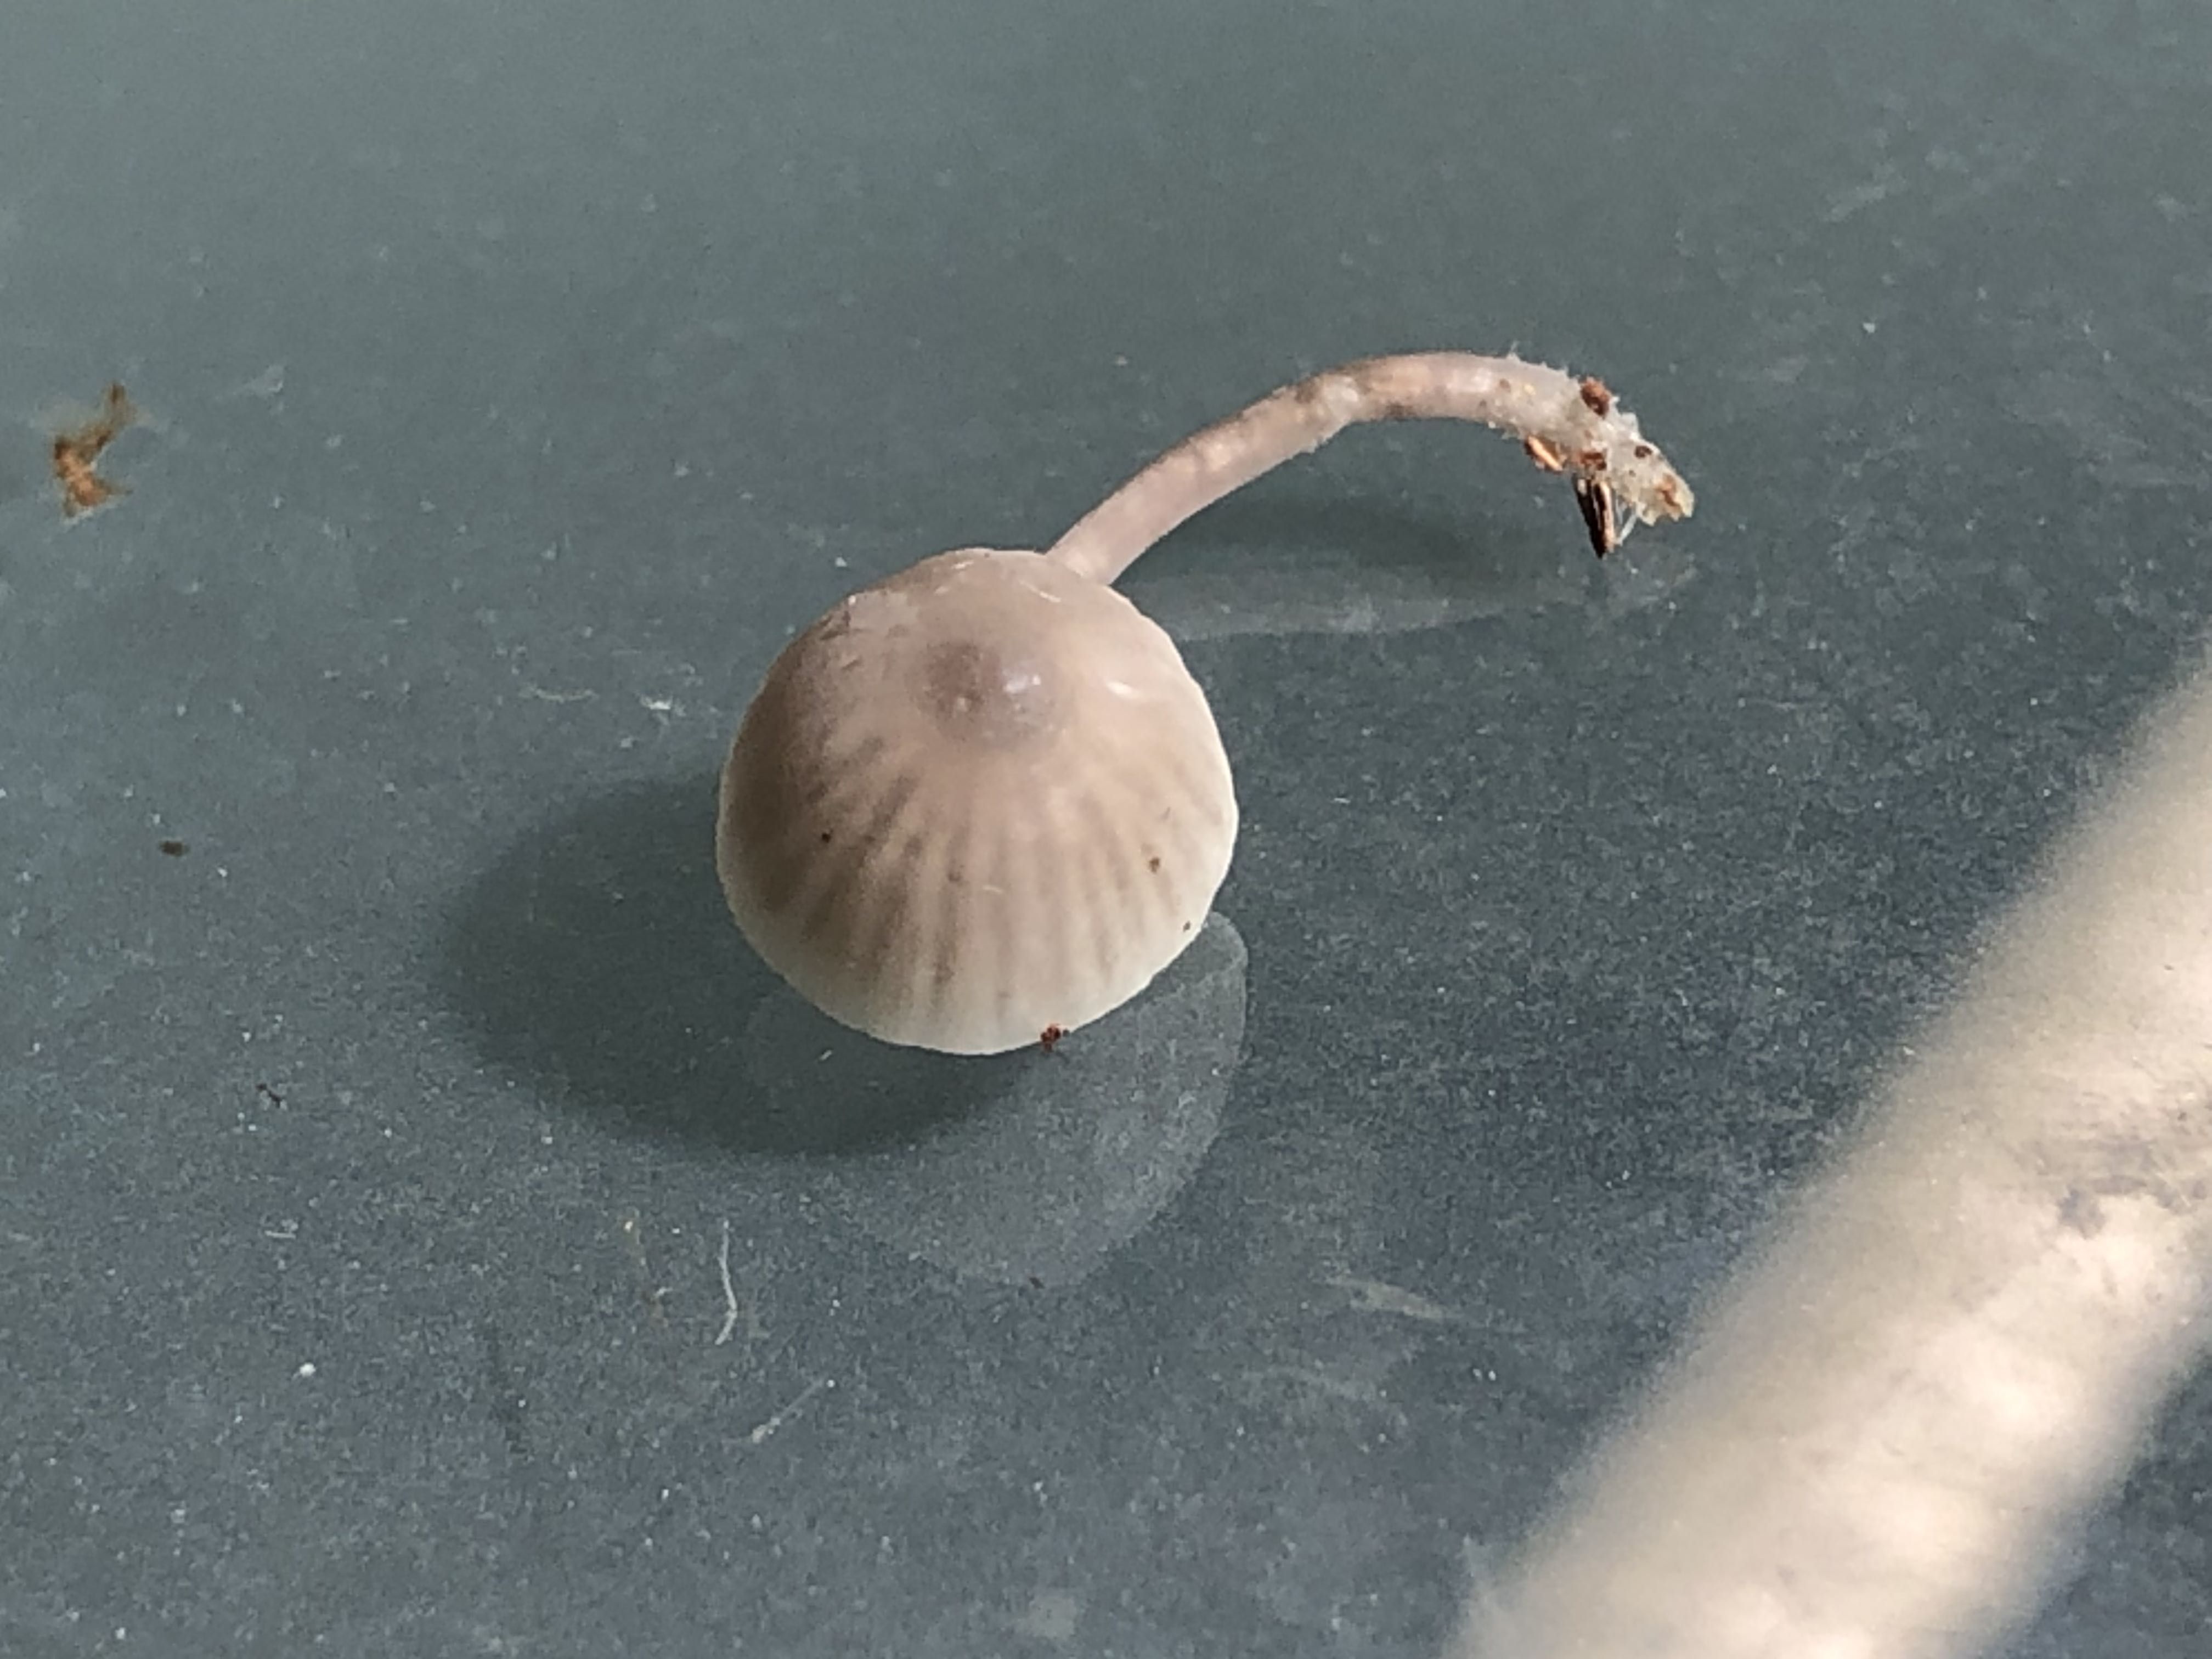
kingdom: Fungi
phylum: Basidiomycota
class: Agaricomycetes
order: Agaricales
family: Mycenaceae
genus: Mycena
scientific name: Mycena
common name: huesvamp
